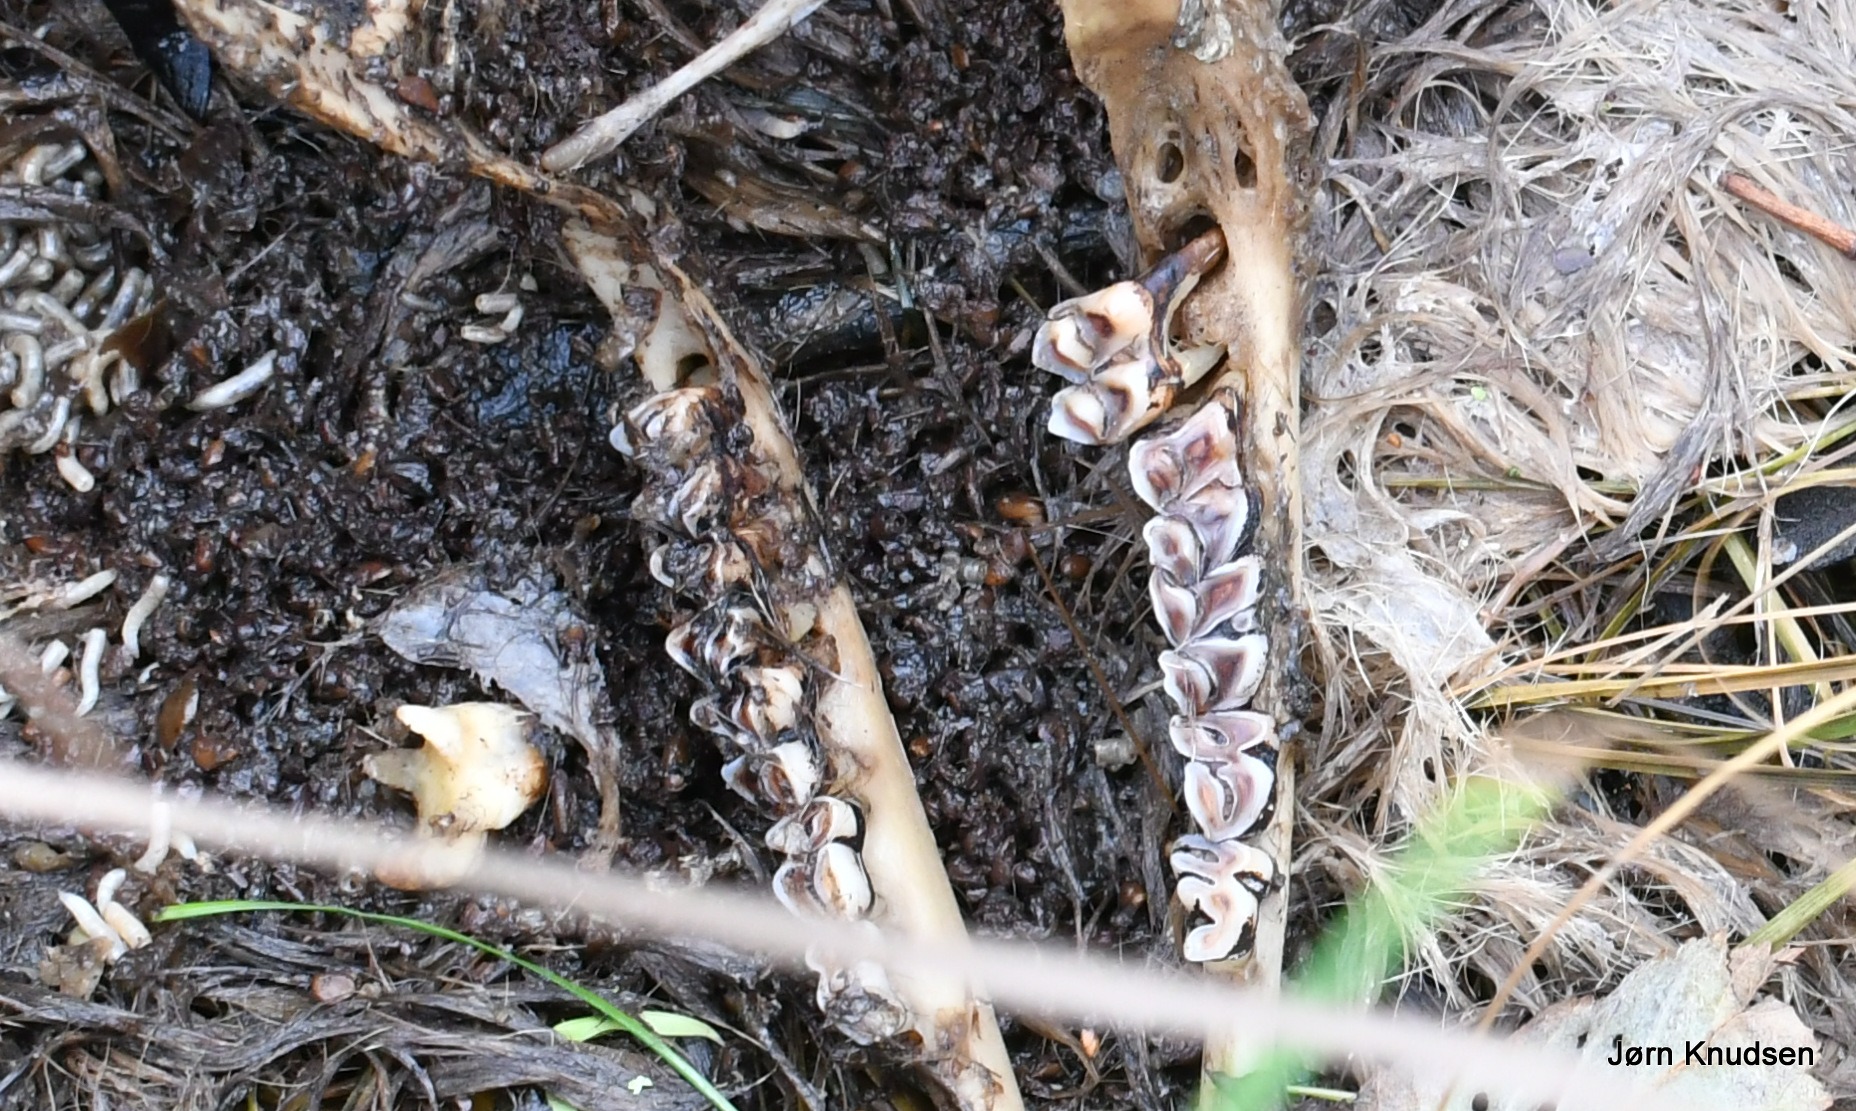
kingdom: Animalia
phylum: Chordata
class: Mammalia
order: Artiodactyla
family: Cervidae
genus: Capreolus
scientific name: Capreolus capreolus
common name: Rådyr
